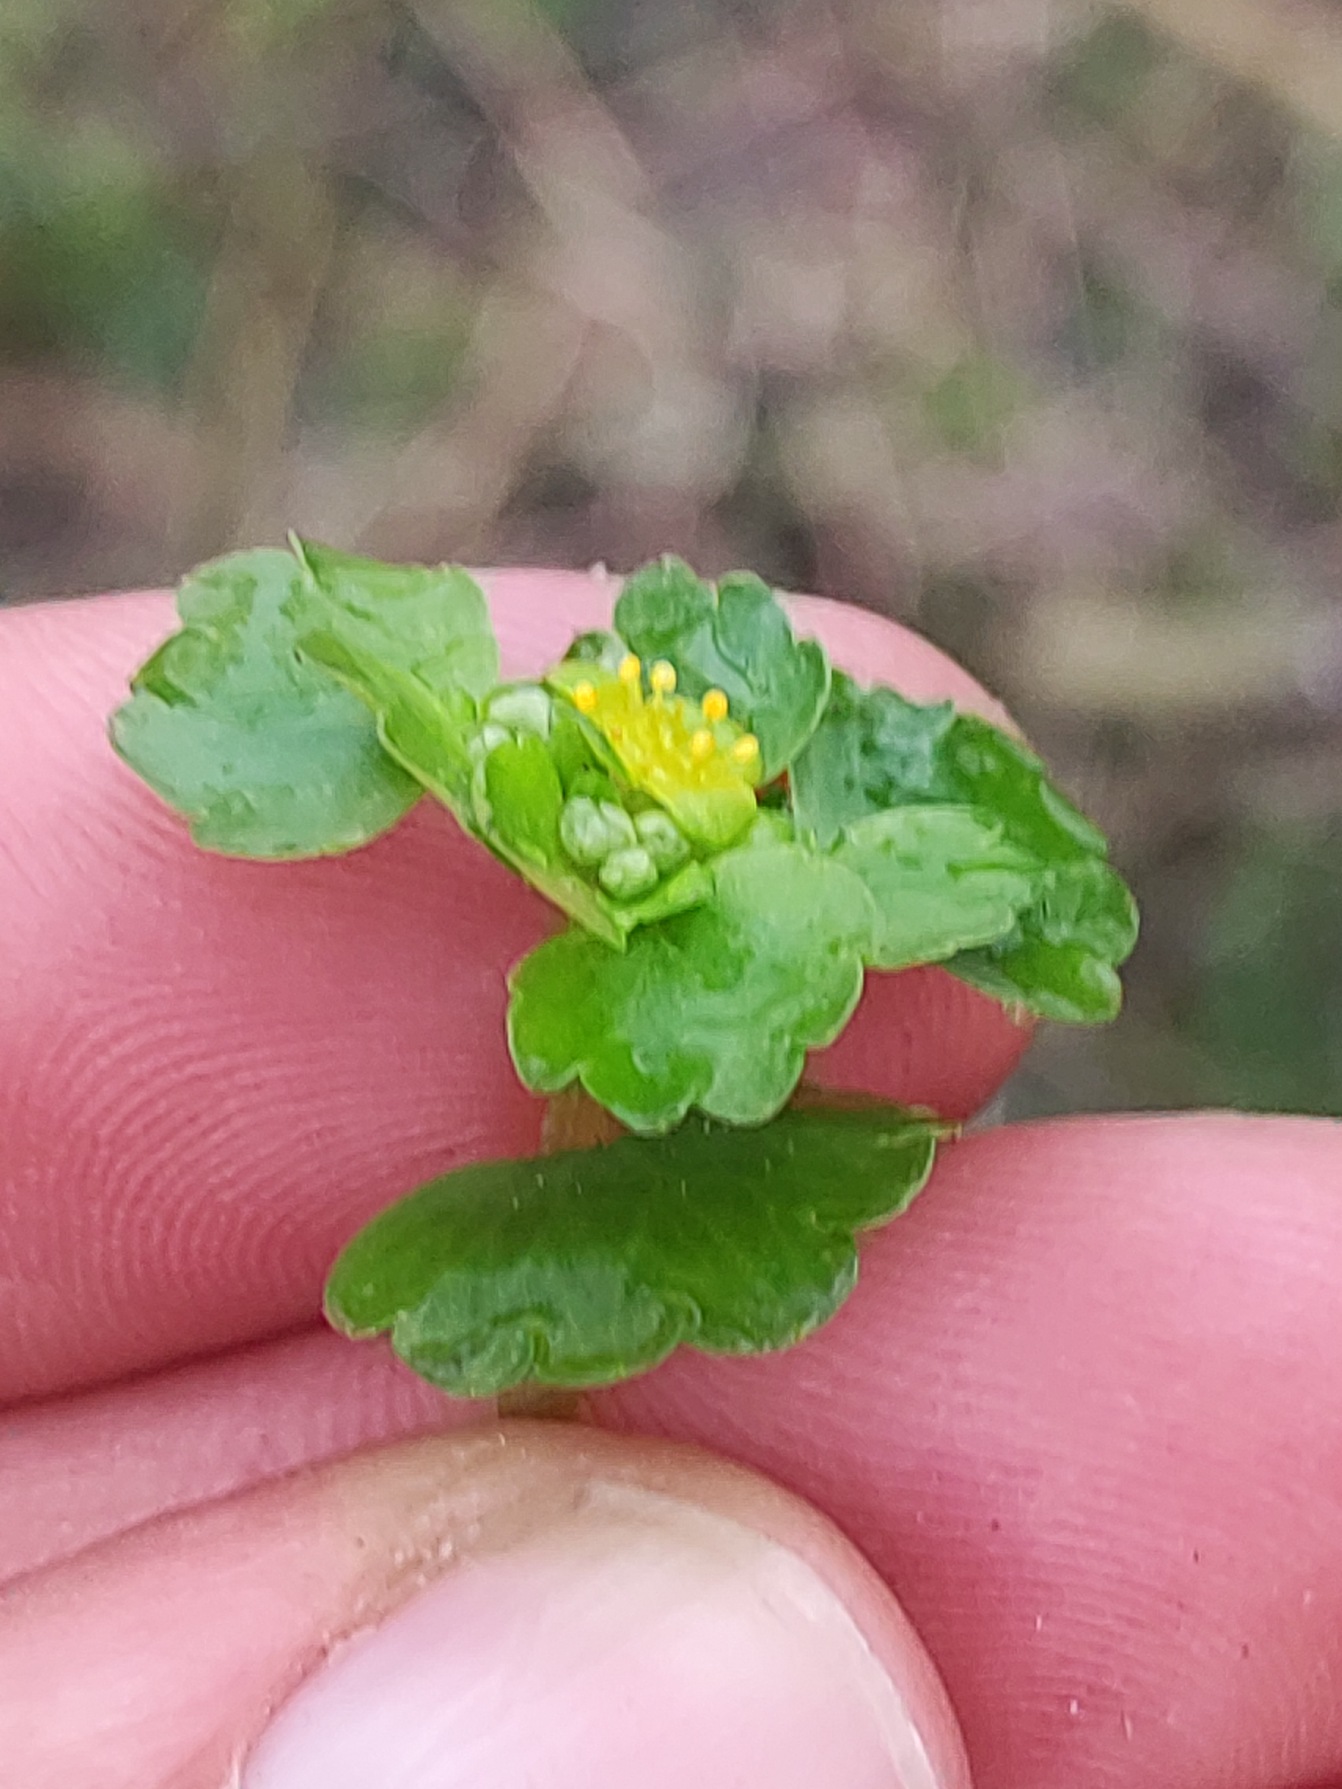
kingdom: Plantae
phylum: Tracheophyta
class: Magnoliopsida
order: Saxifragales
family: Saxifragaceae
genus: Chrysosplenium
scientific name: Chrysosplenium alternifolium
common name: Almindelig milturt
